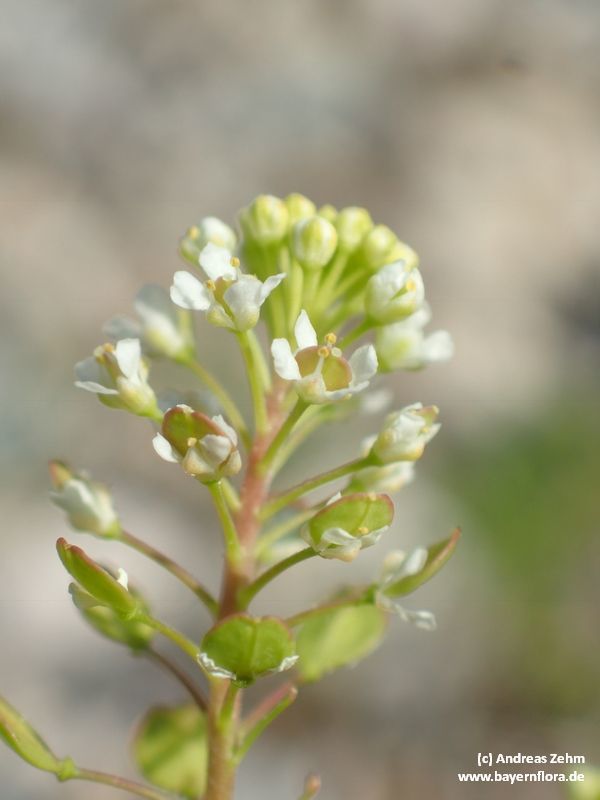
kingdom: Plantae
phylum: Tracheophyta
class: Magnoliopsida
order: Brassicales
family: Brassicaceae
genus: Lepidium
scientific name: Lepidium virginicum
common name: Least pepperwort
